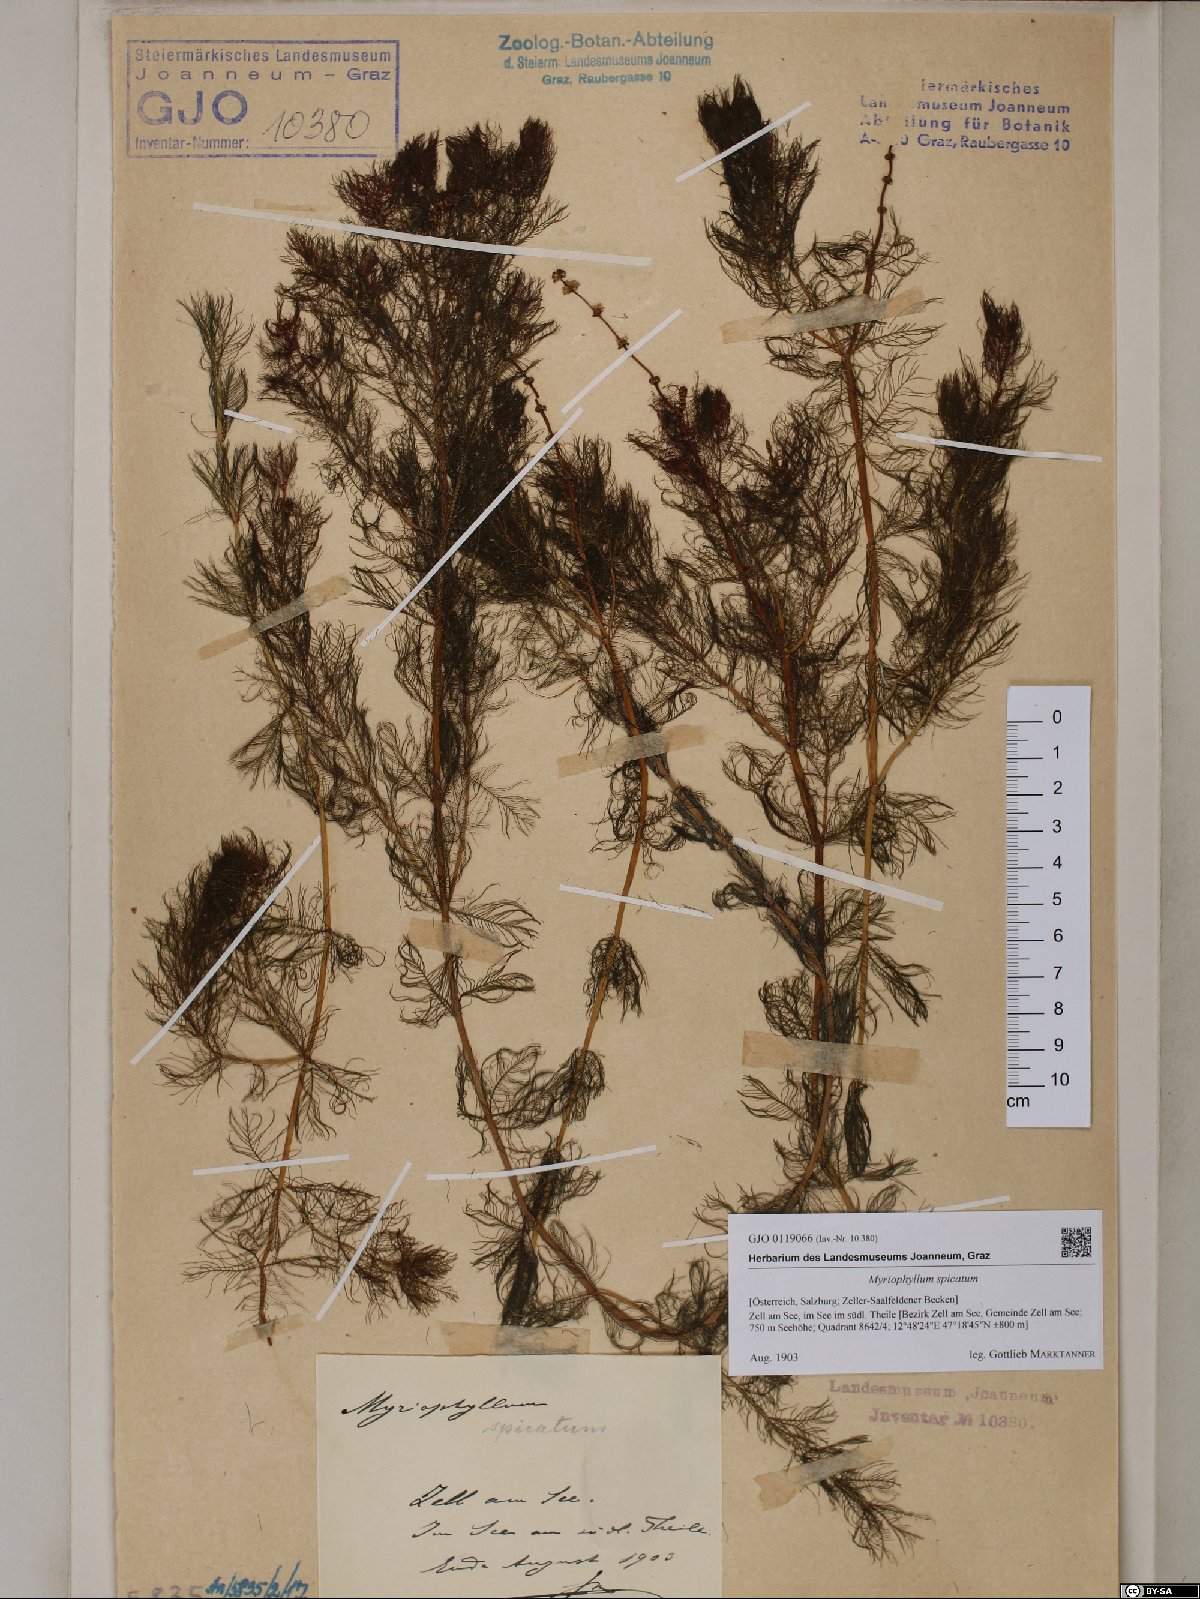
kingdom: Plantae
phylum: Tracheophyta
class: Magnoliopsida
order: Saxifragales
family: Haloragaceae
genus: Myriophyllum
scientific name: Myriophyllum spicatum
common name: Spiked water-milfoil
